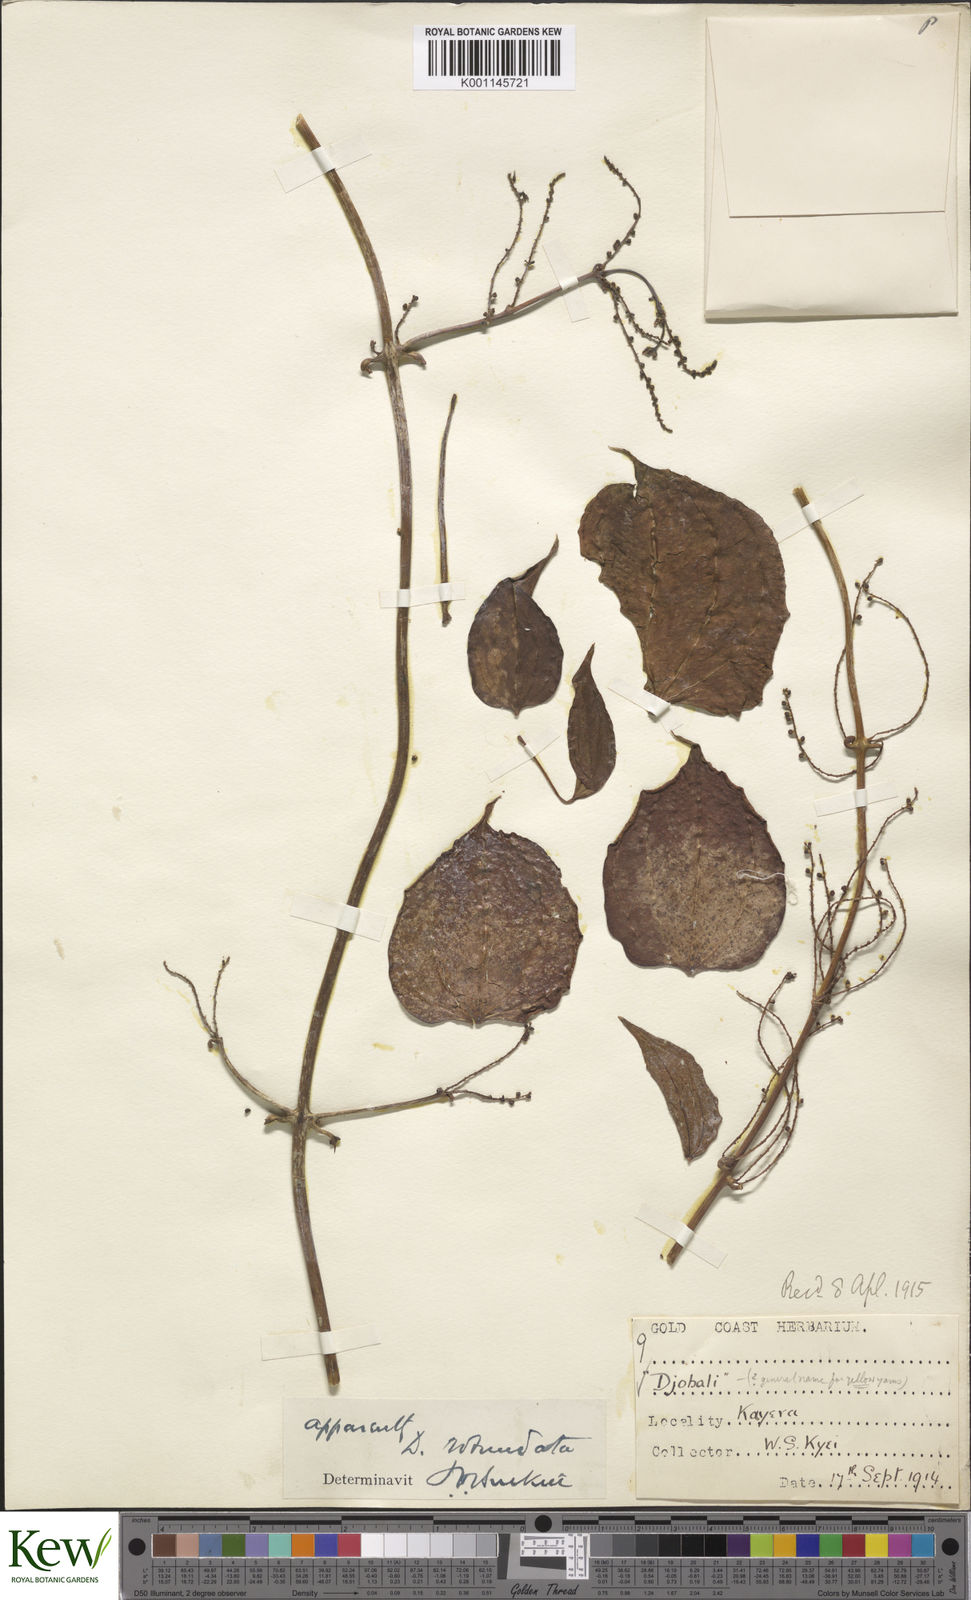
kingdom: Plantae
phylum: Tracheophyta
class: Liliopsida
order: Dioscoreales
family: Dioscoreaceae
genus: Dioscorea
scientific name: Dioscorea cayenensis
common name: Attoto yam
